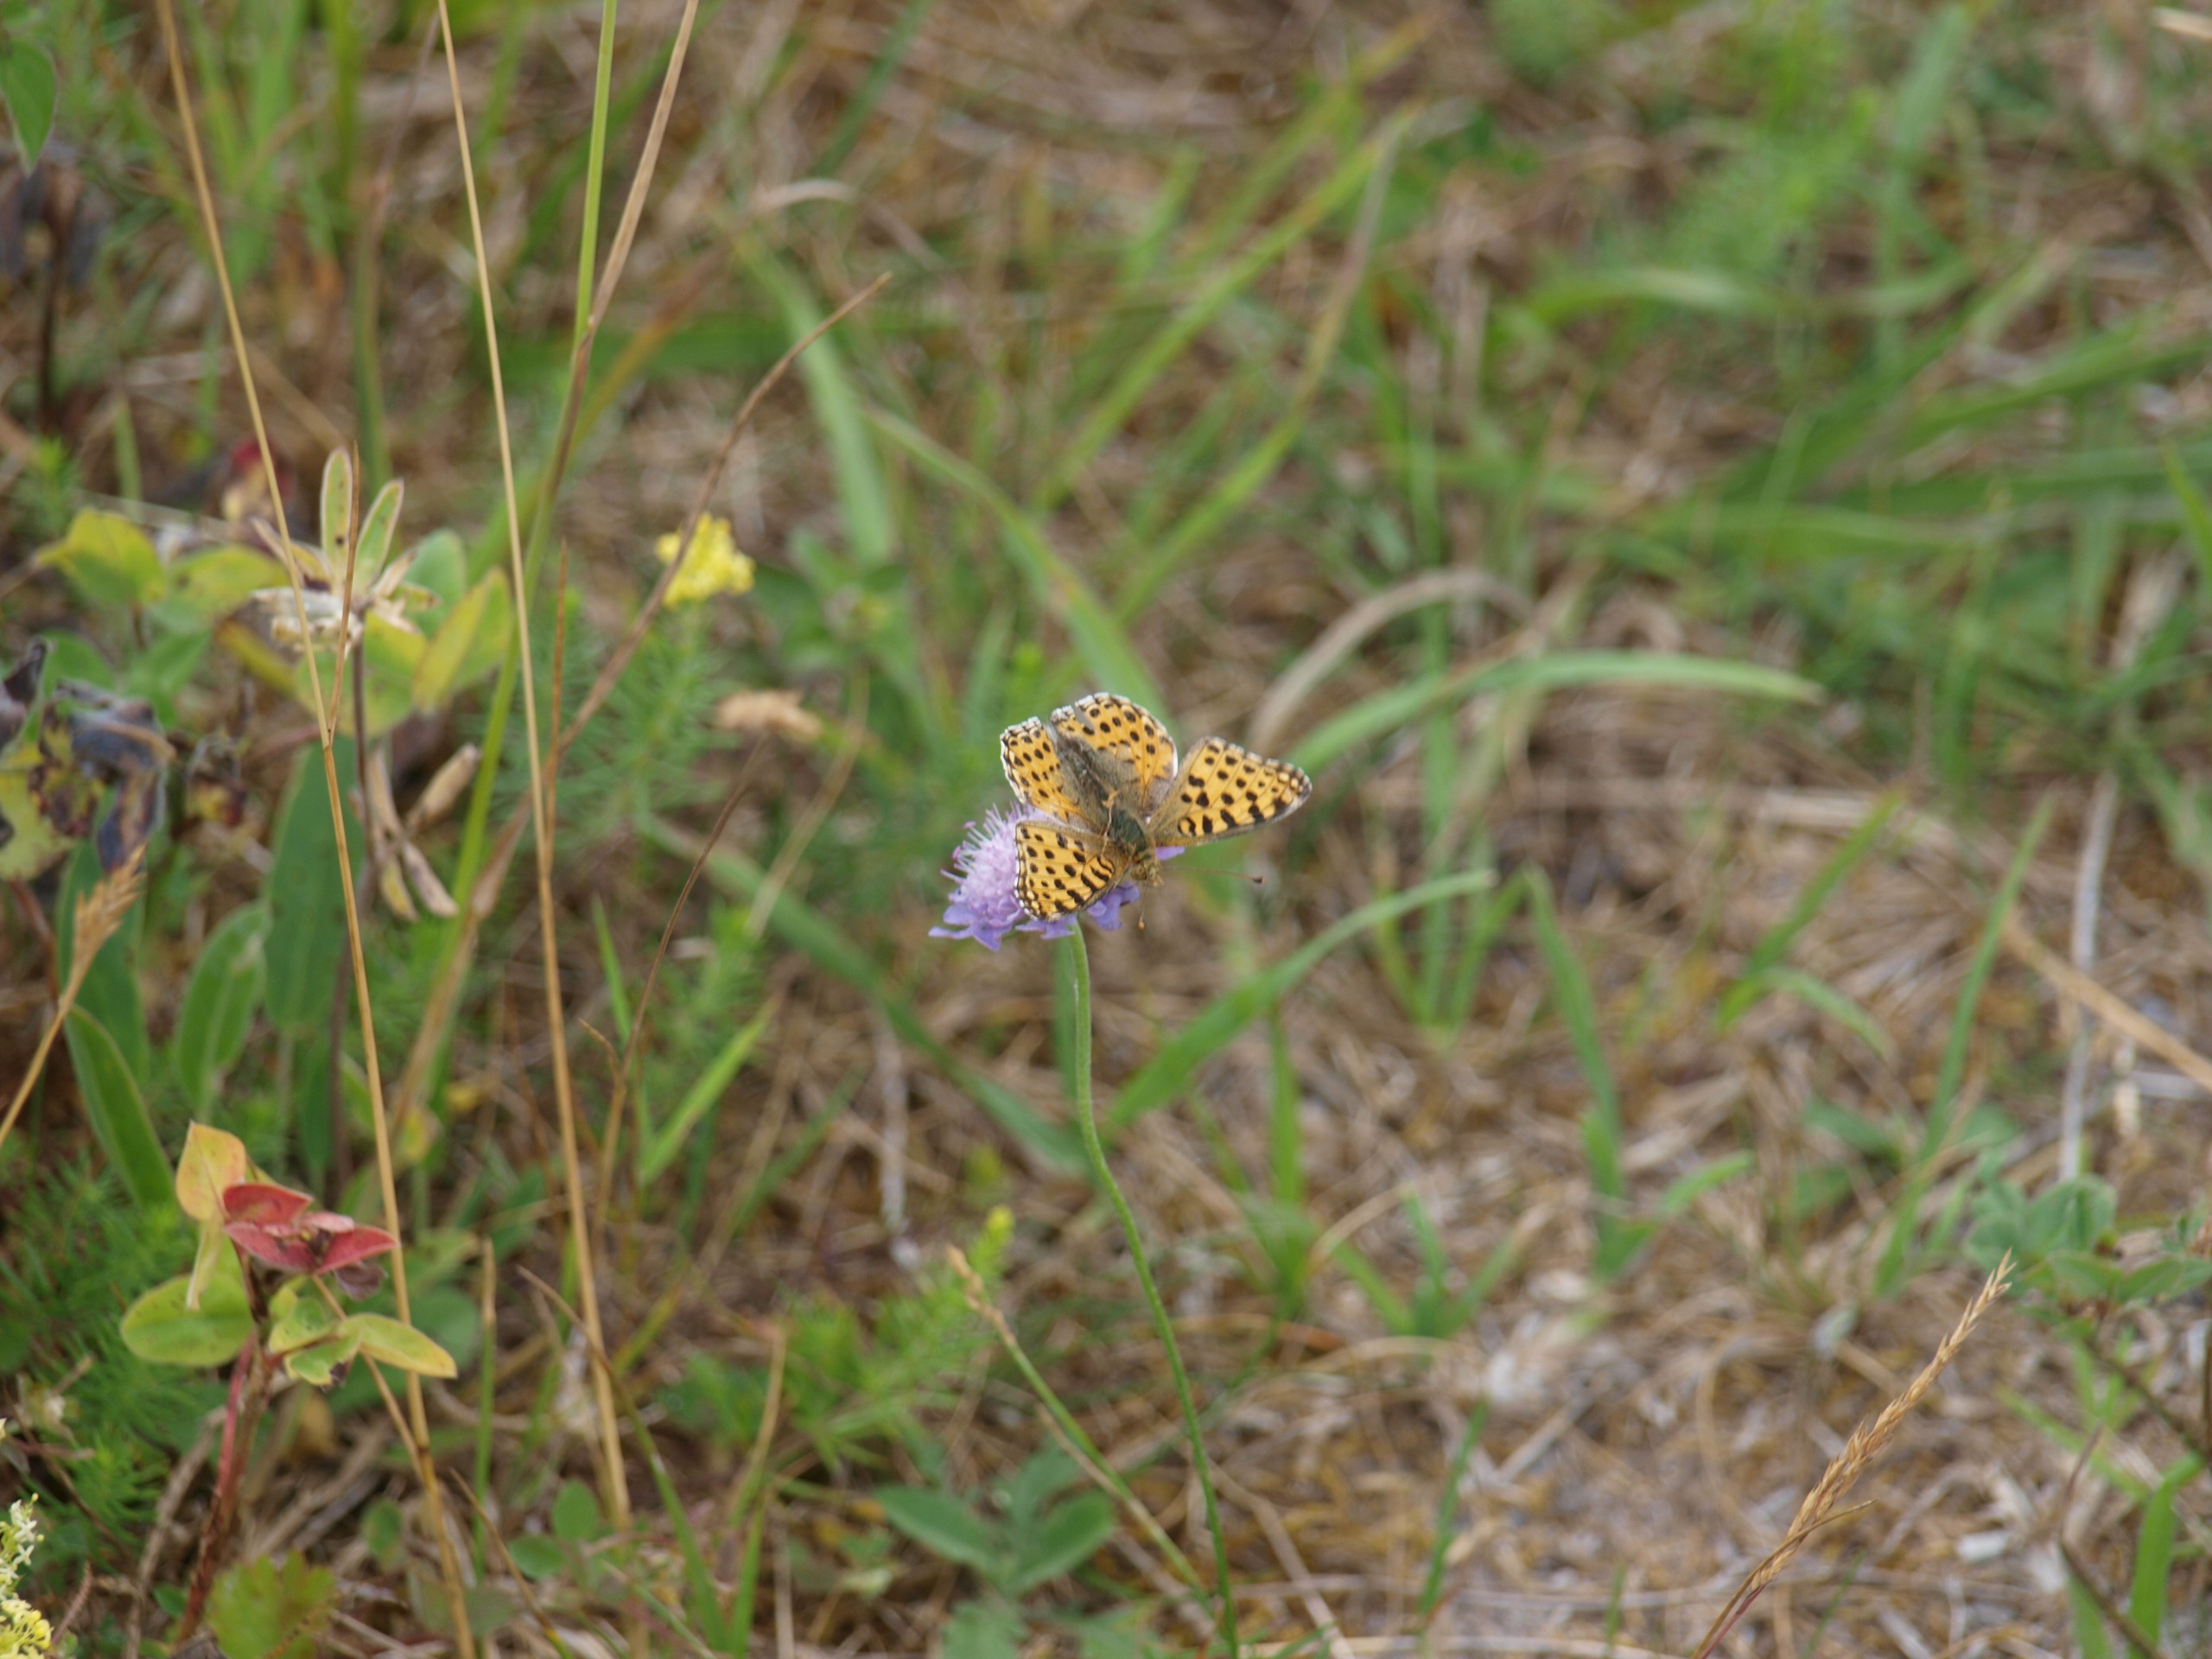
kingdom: Animalia
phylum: Arthropoda
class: Insecta
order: Lepidoptera
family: Nymphalidae
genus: Issoria
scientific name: Issoria lathonia
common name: Storplettet perlemorsommerfugl
